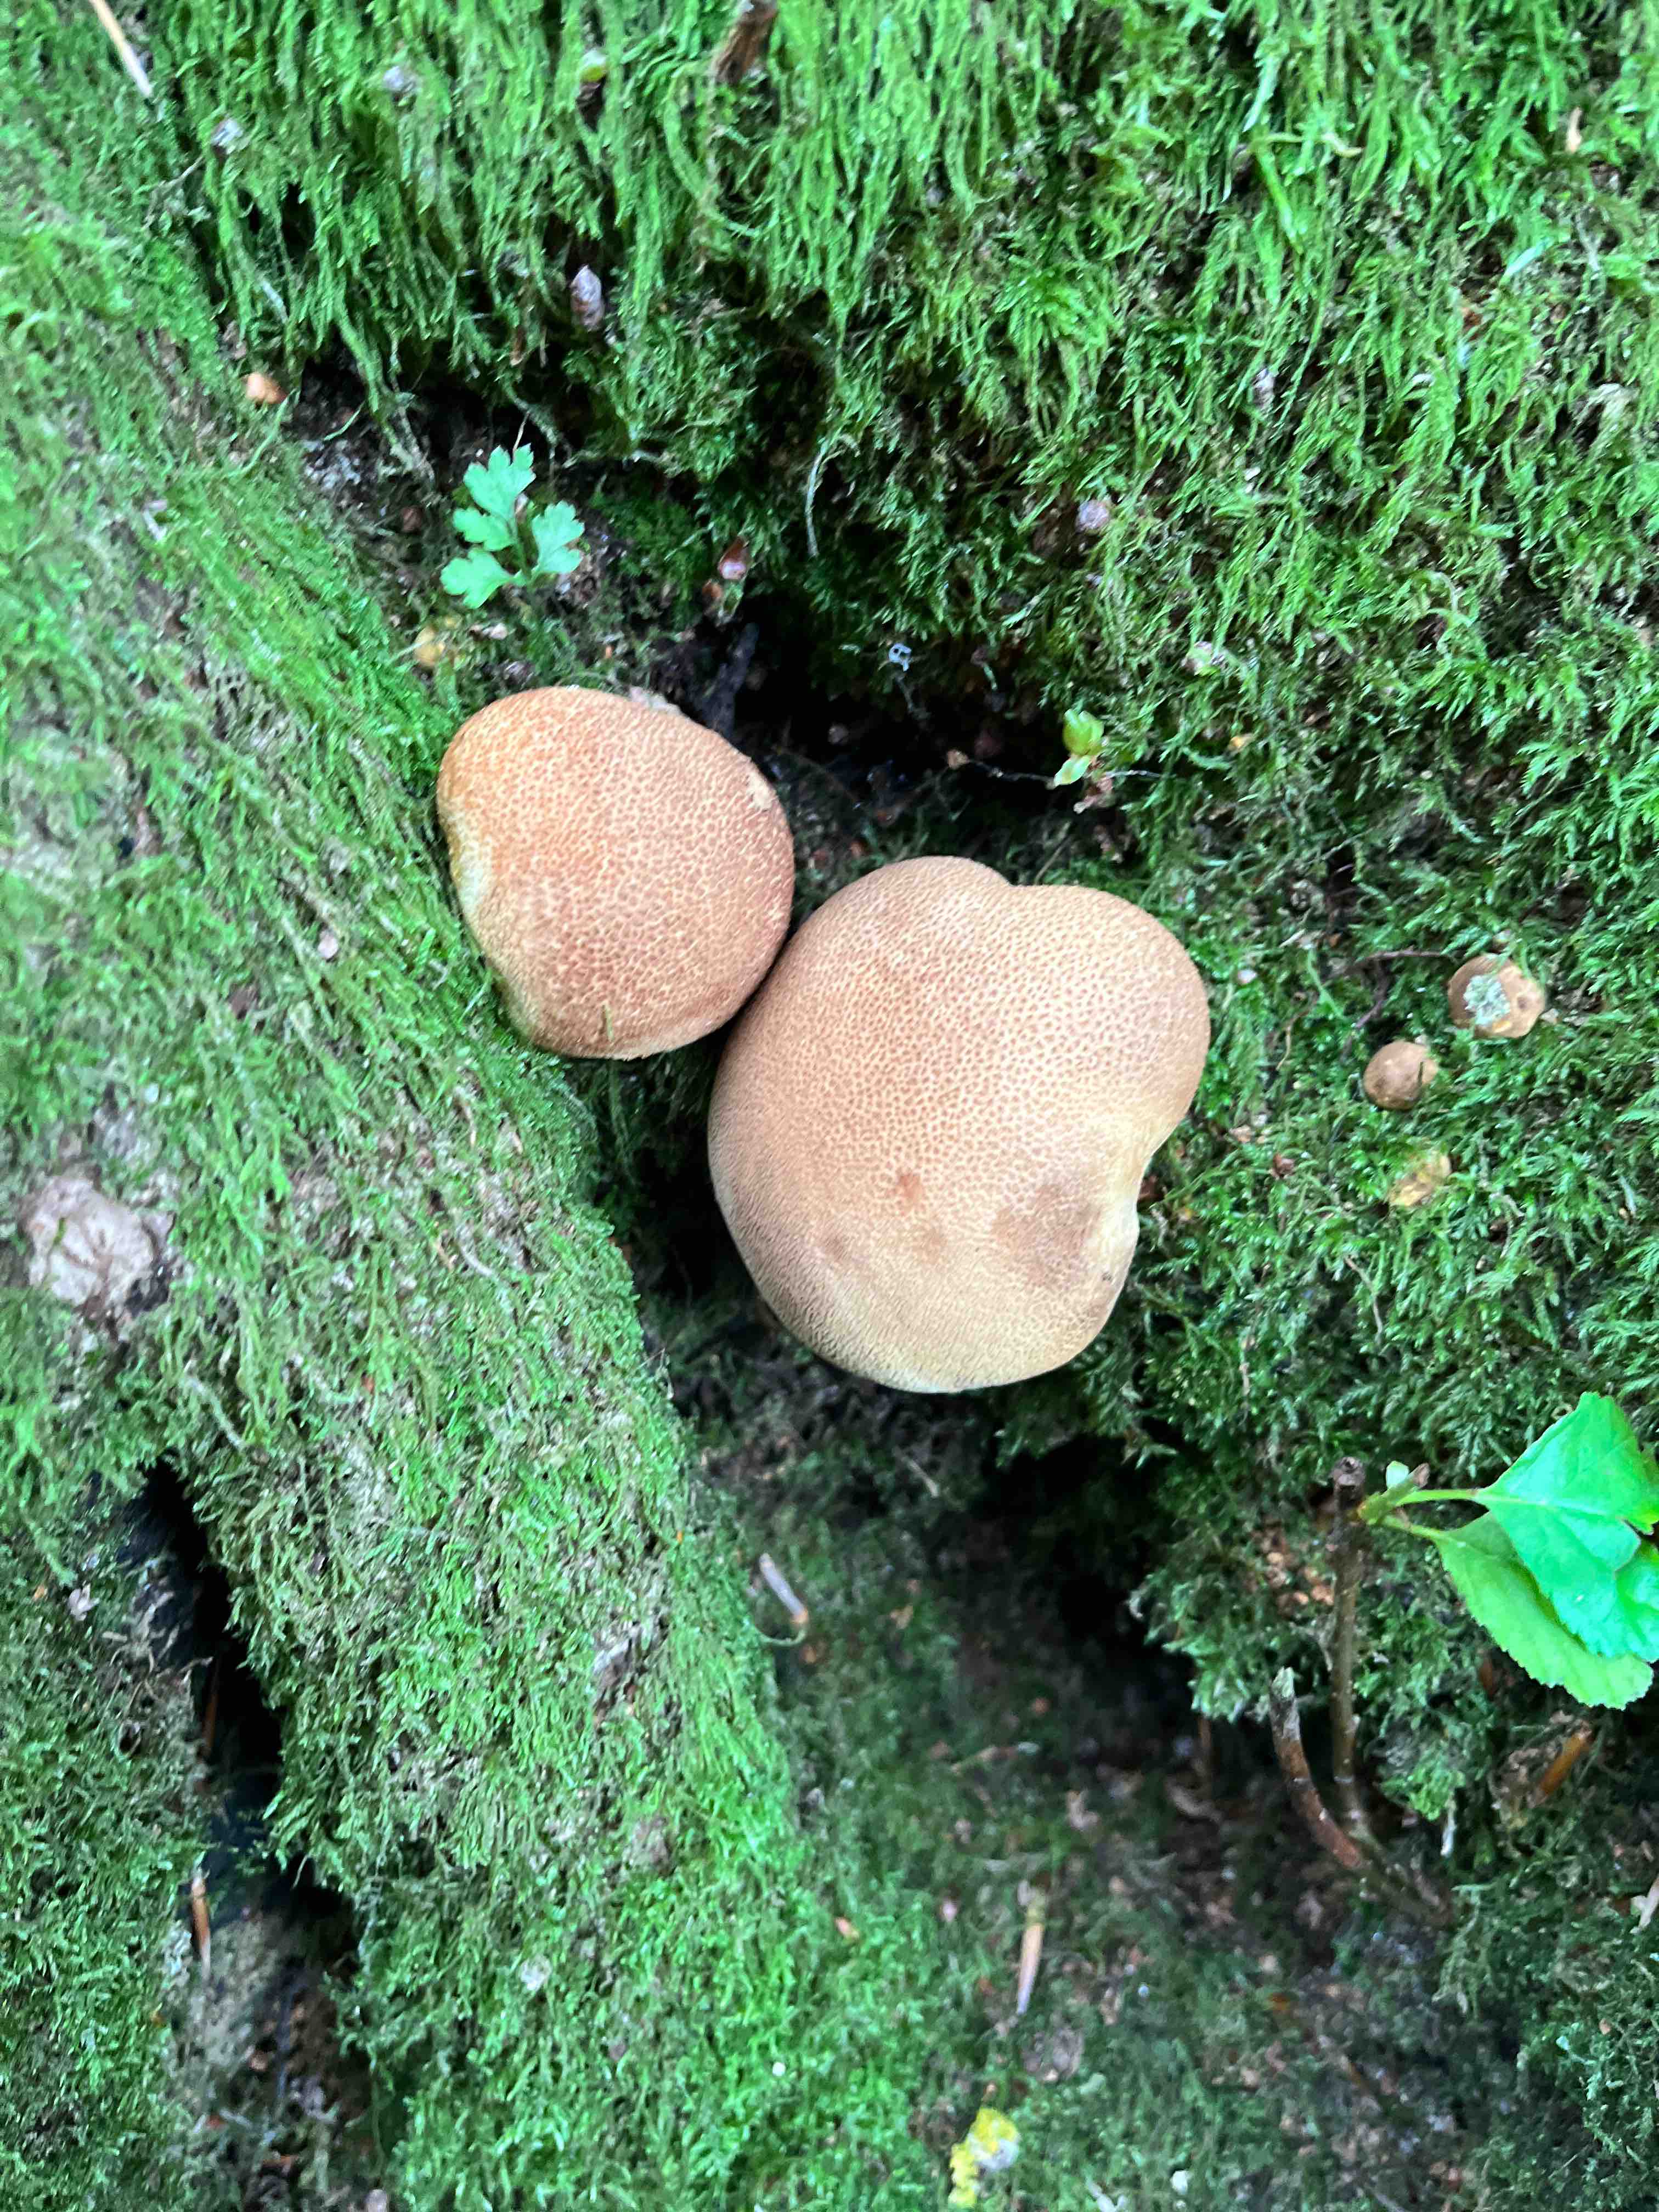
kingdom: Fungi
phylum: Basidiomycota
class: Agaricomycetes
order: Boletales
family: Sclerodermataceae
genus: Scleroderma
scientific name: Scleroderma citrinum
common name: almindelig bruskbold
